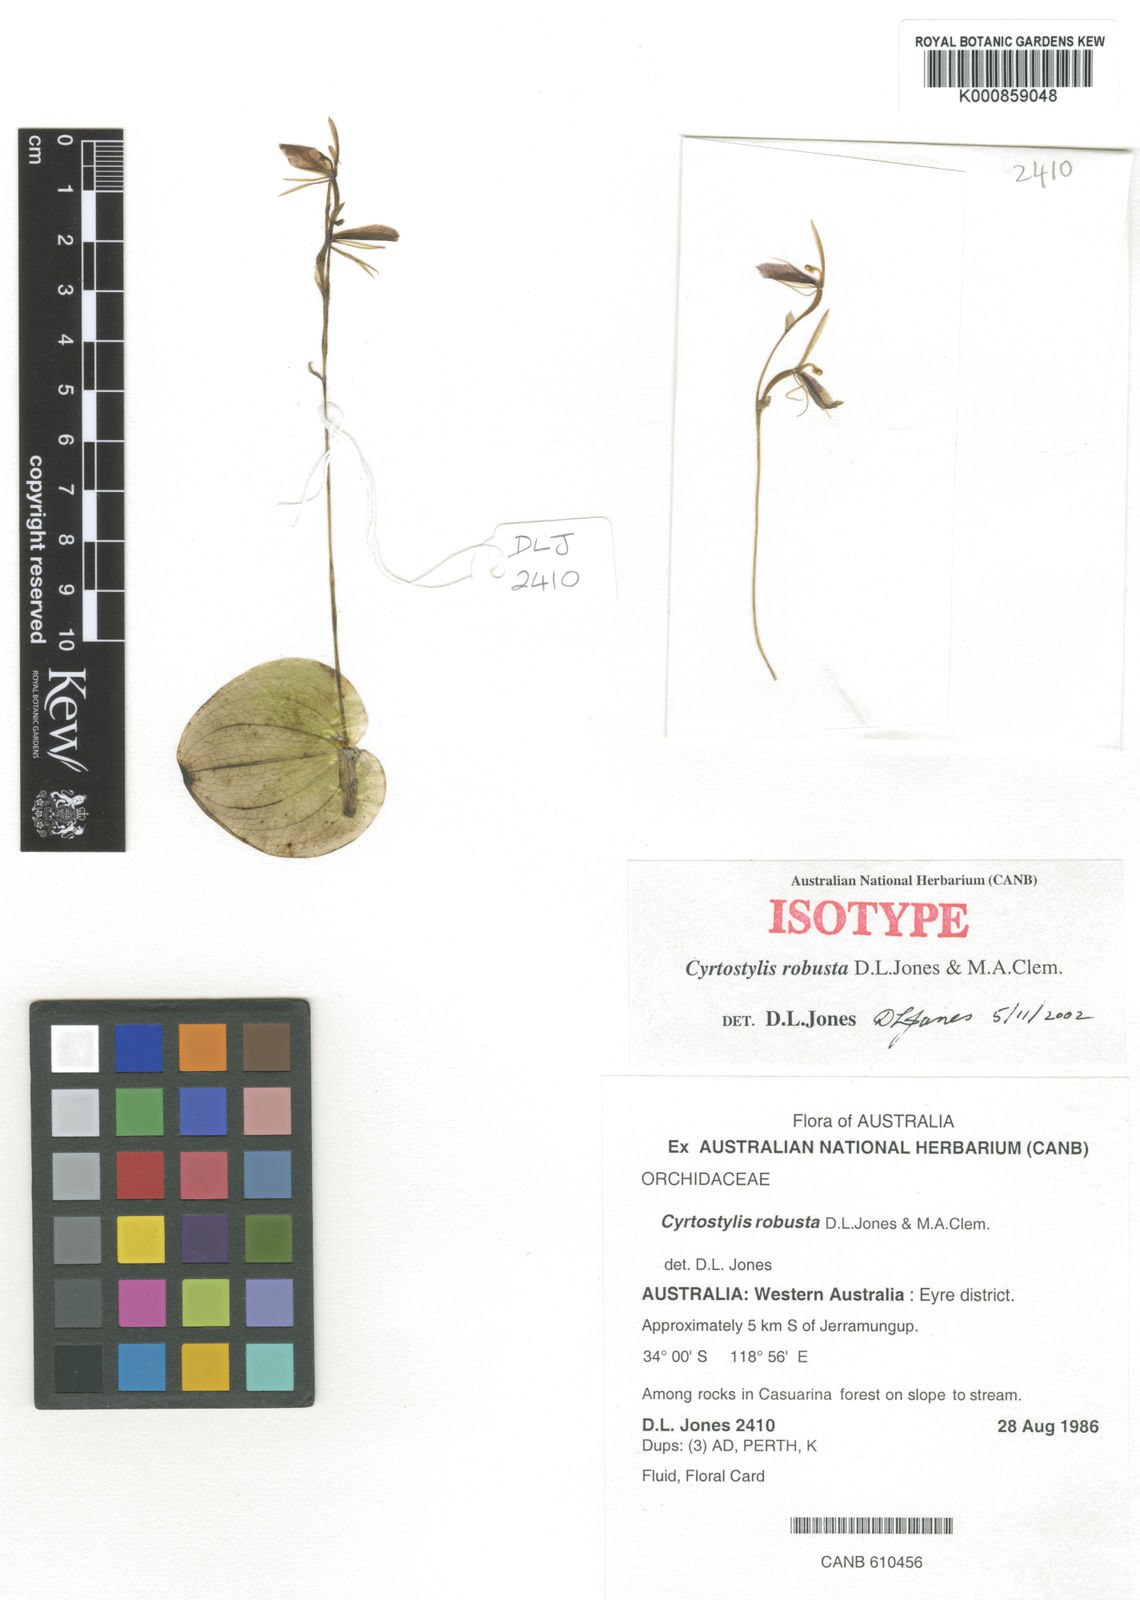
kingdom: Plantae
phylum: Tracheophyta
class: Liliopsida
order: Asparagales
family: Orchidaceae
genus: Cyrtostylis
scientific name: Cyrtostylis robusta
